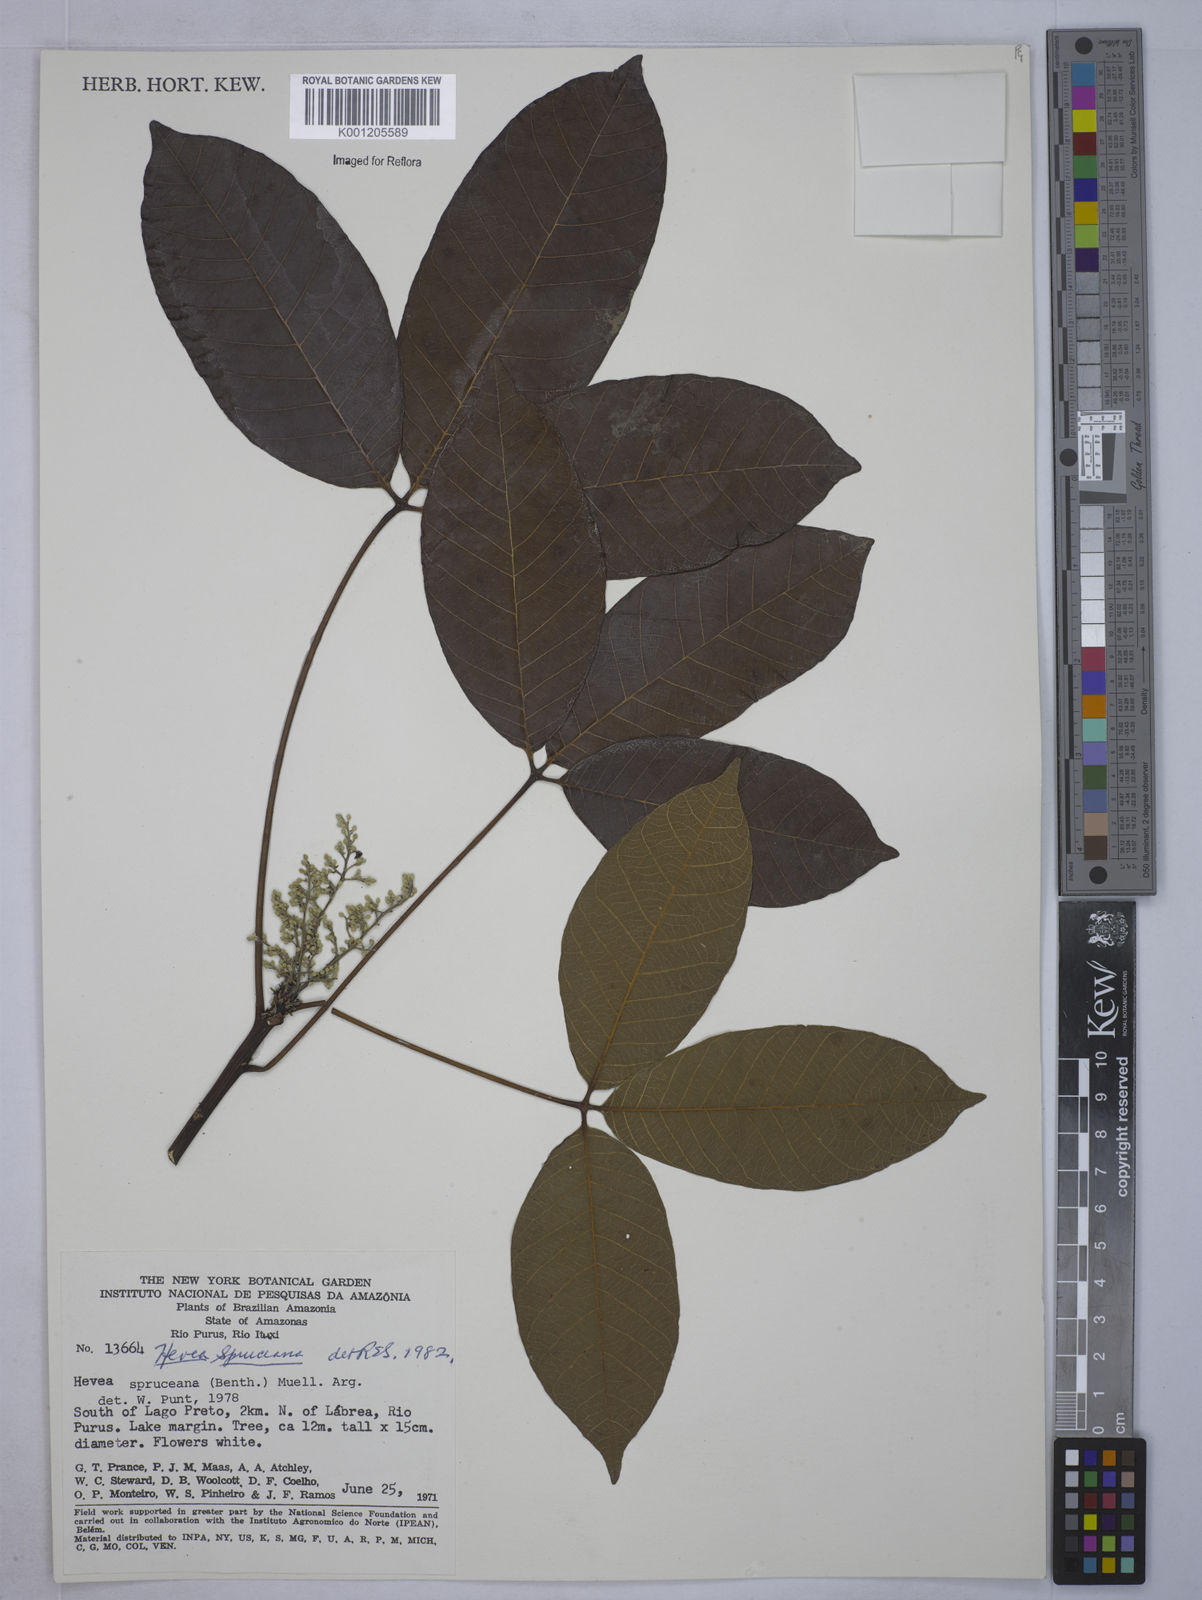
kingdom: Plantae
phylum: Tracheophyta
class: Magnoliopsida
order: Malpighiales
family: Euphorbiaceae
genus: Hevea
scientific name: Hevea
